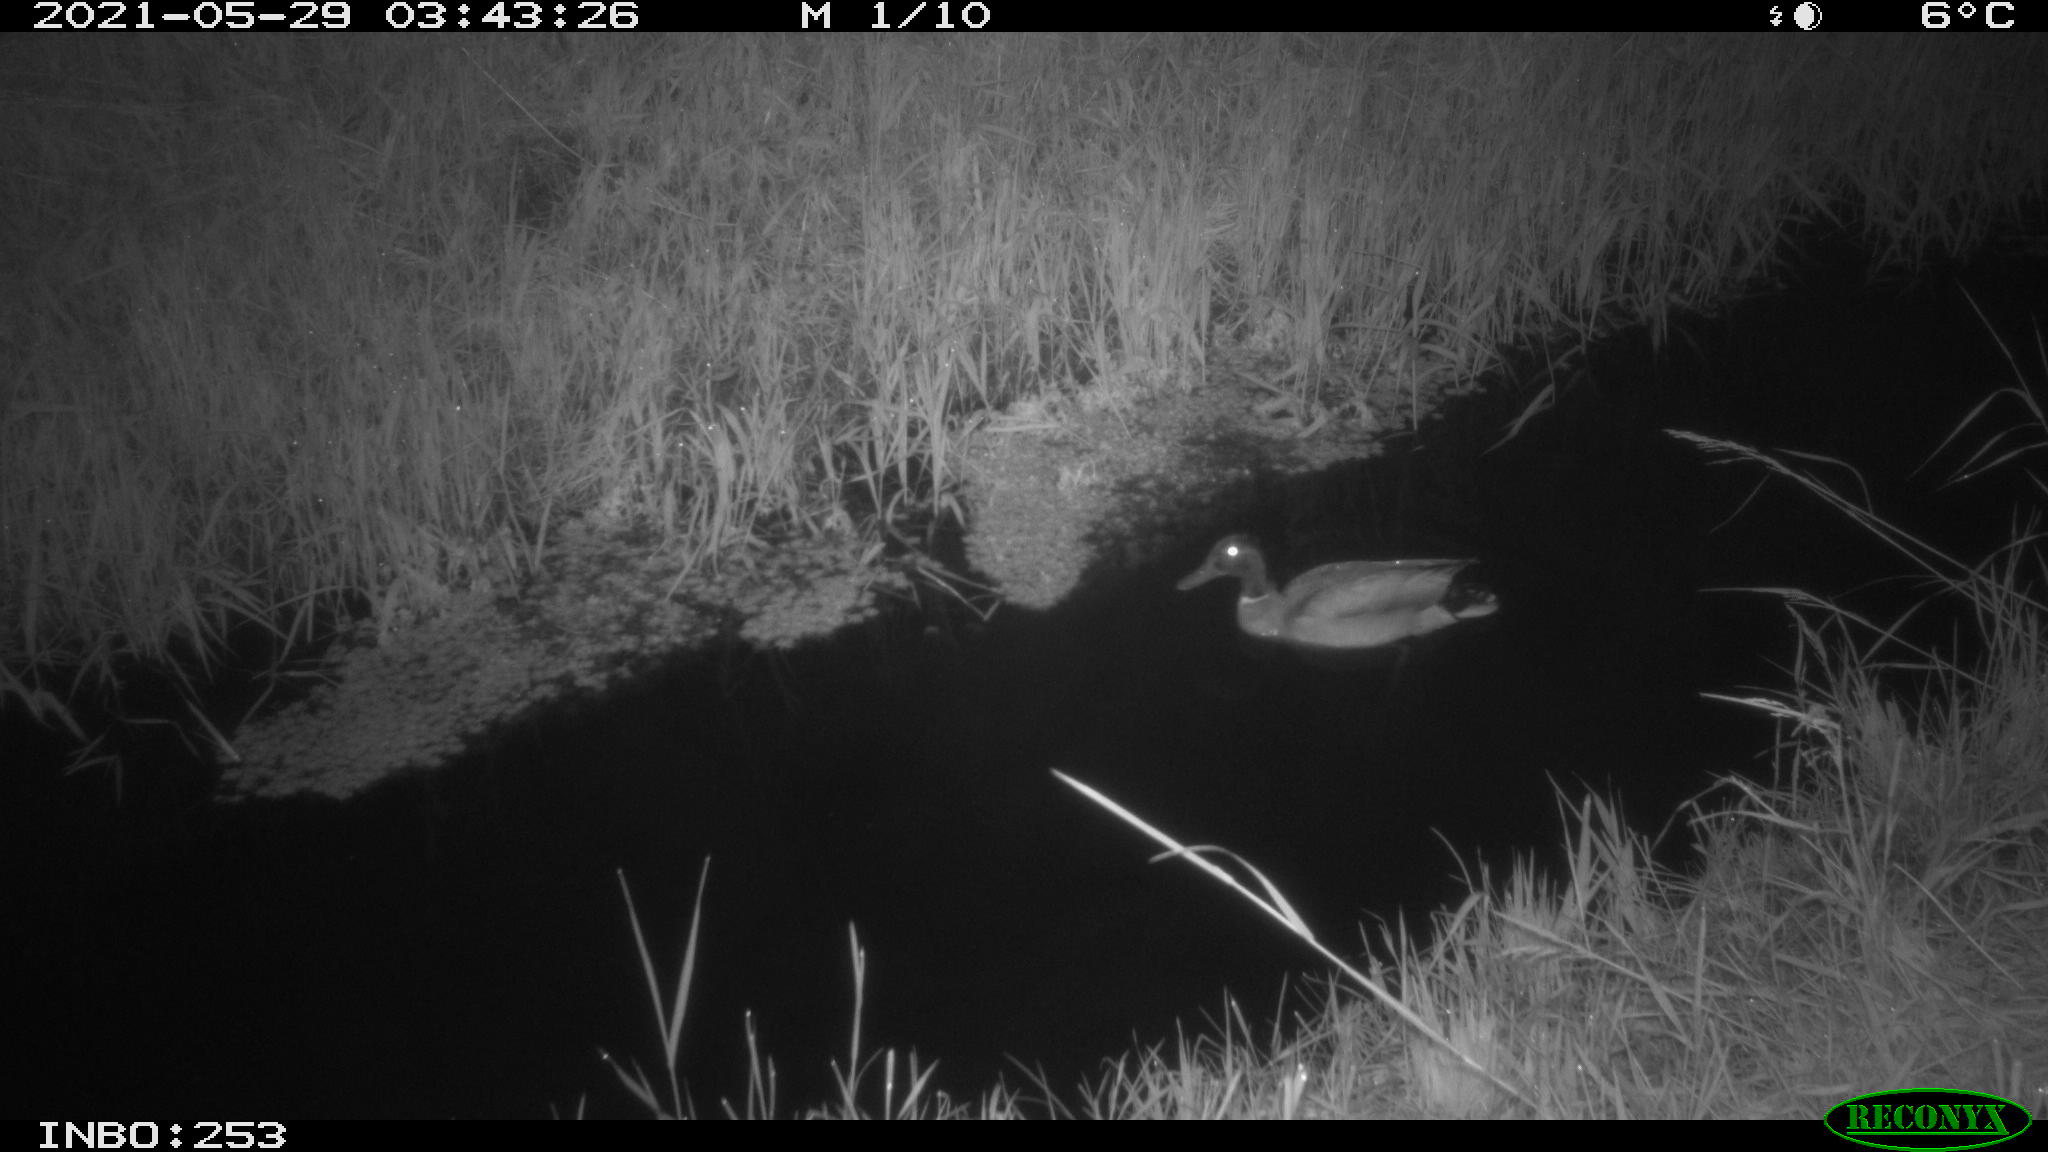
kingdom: Animalia
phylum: Chordata
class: Aves
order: Anseriformes
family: Anatidae
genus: Anas
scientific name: Anas
